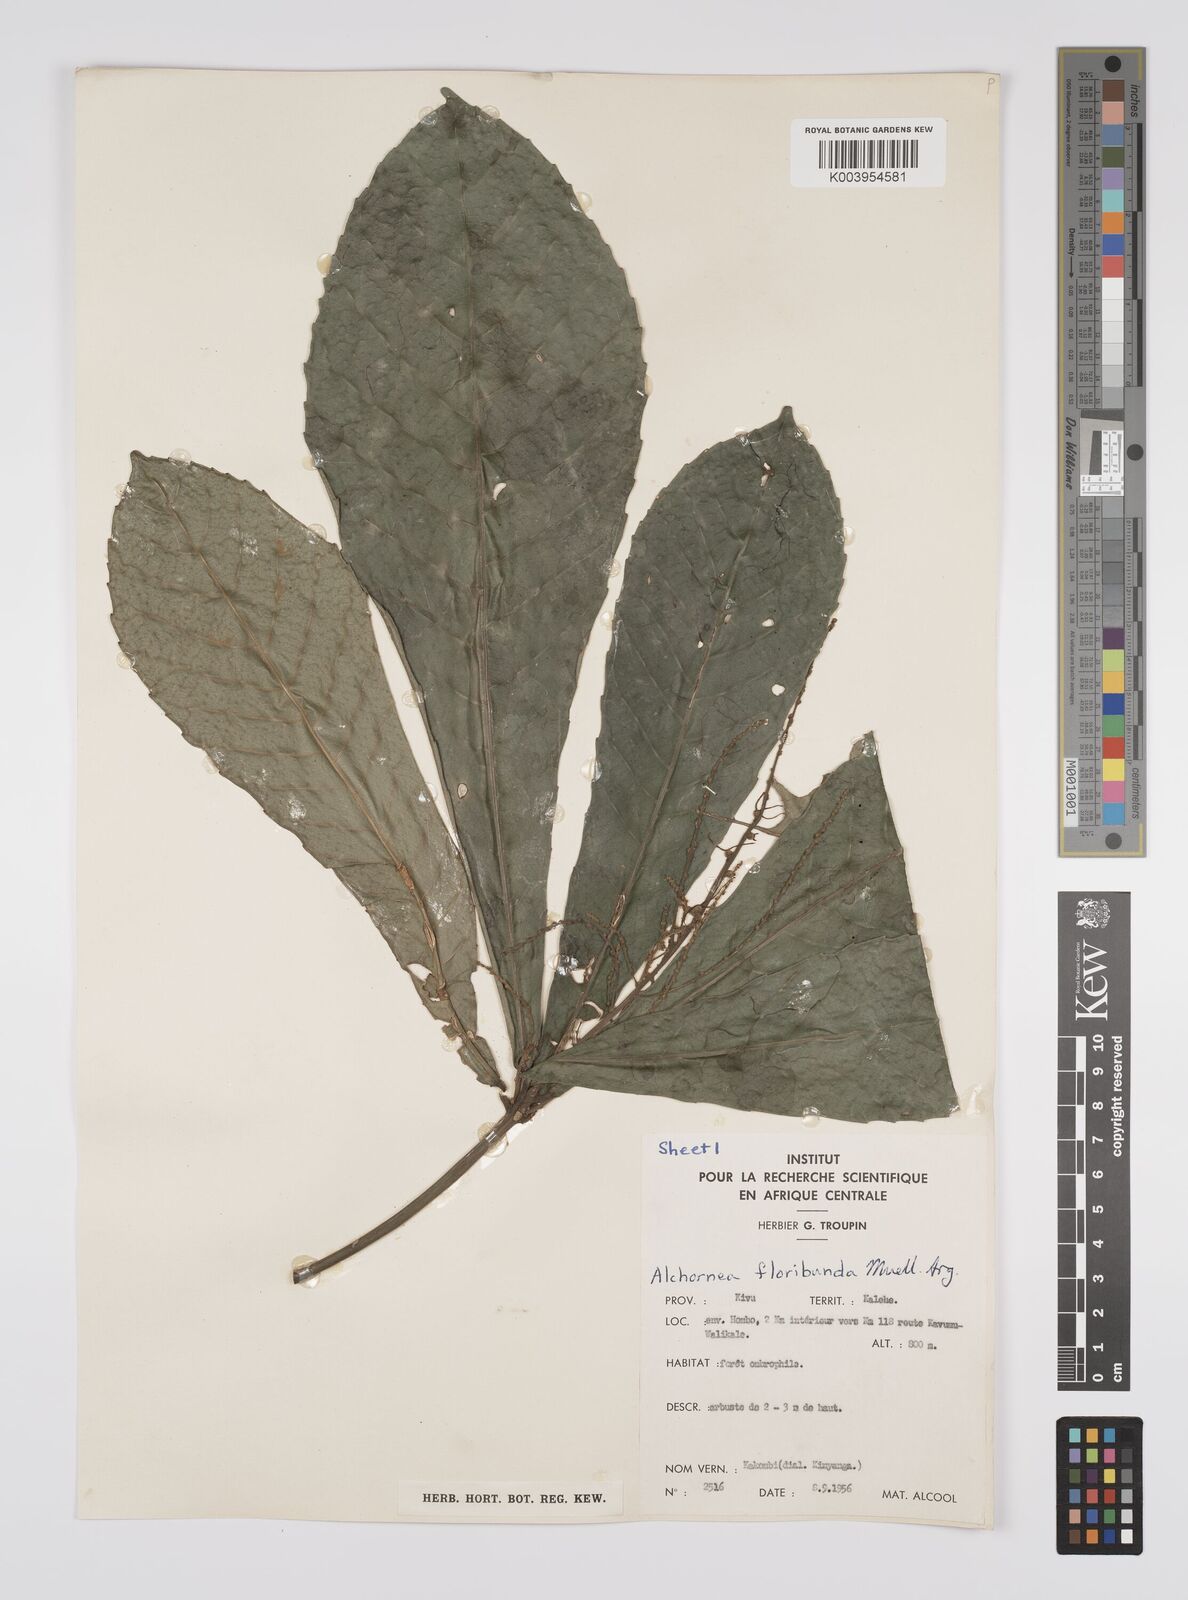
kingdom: Plantae
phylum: Tracheophyta
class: Magnoliopsida
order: Malpighiales
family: Euphorbiaceae
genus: Alchornea
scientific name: Alchornea floribunda
